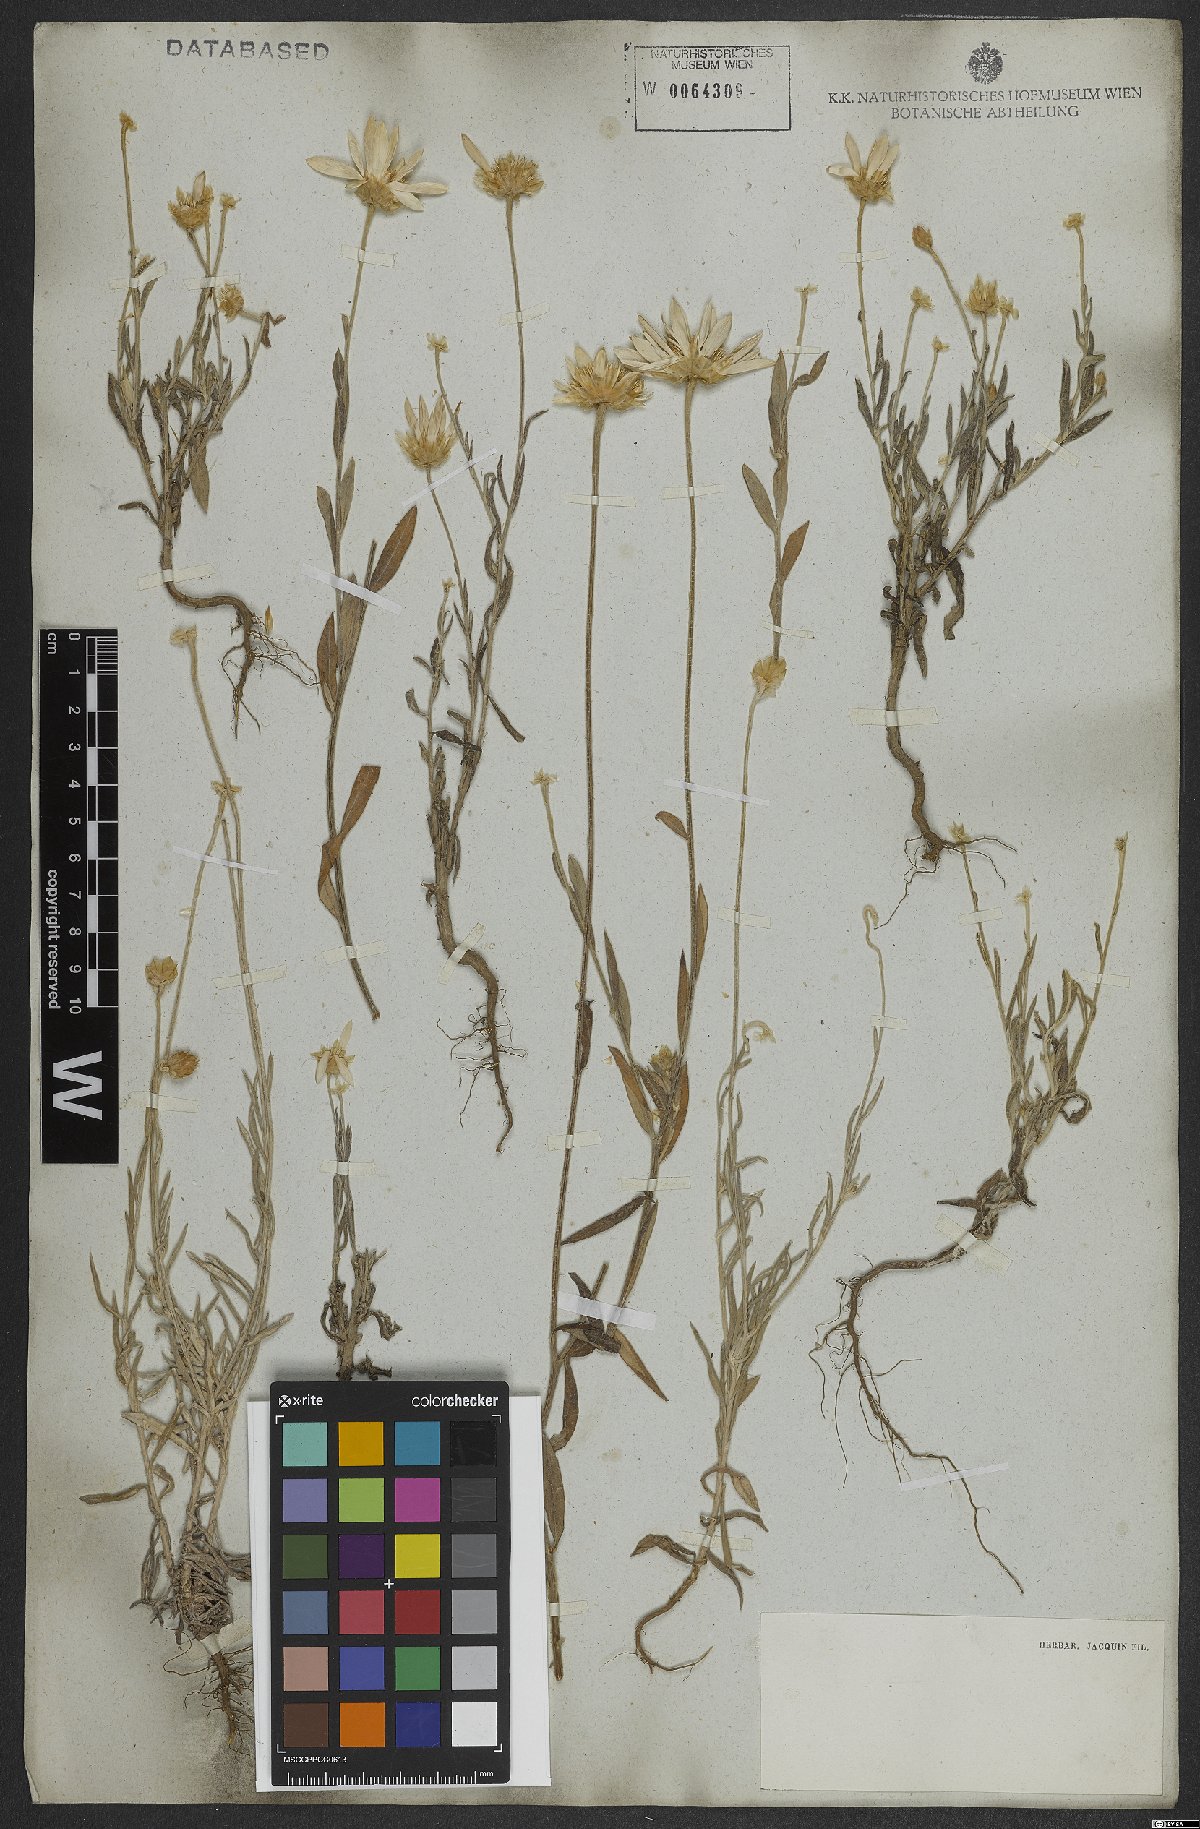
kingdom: Plantae
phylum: Tracheophyta
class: Magnoliopsida
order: Asterales
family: Asteraceae
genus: Xeranthemum
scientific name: Xeranthemum annuum
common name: Immortelle
